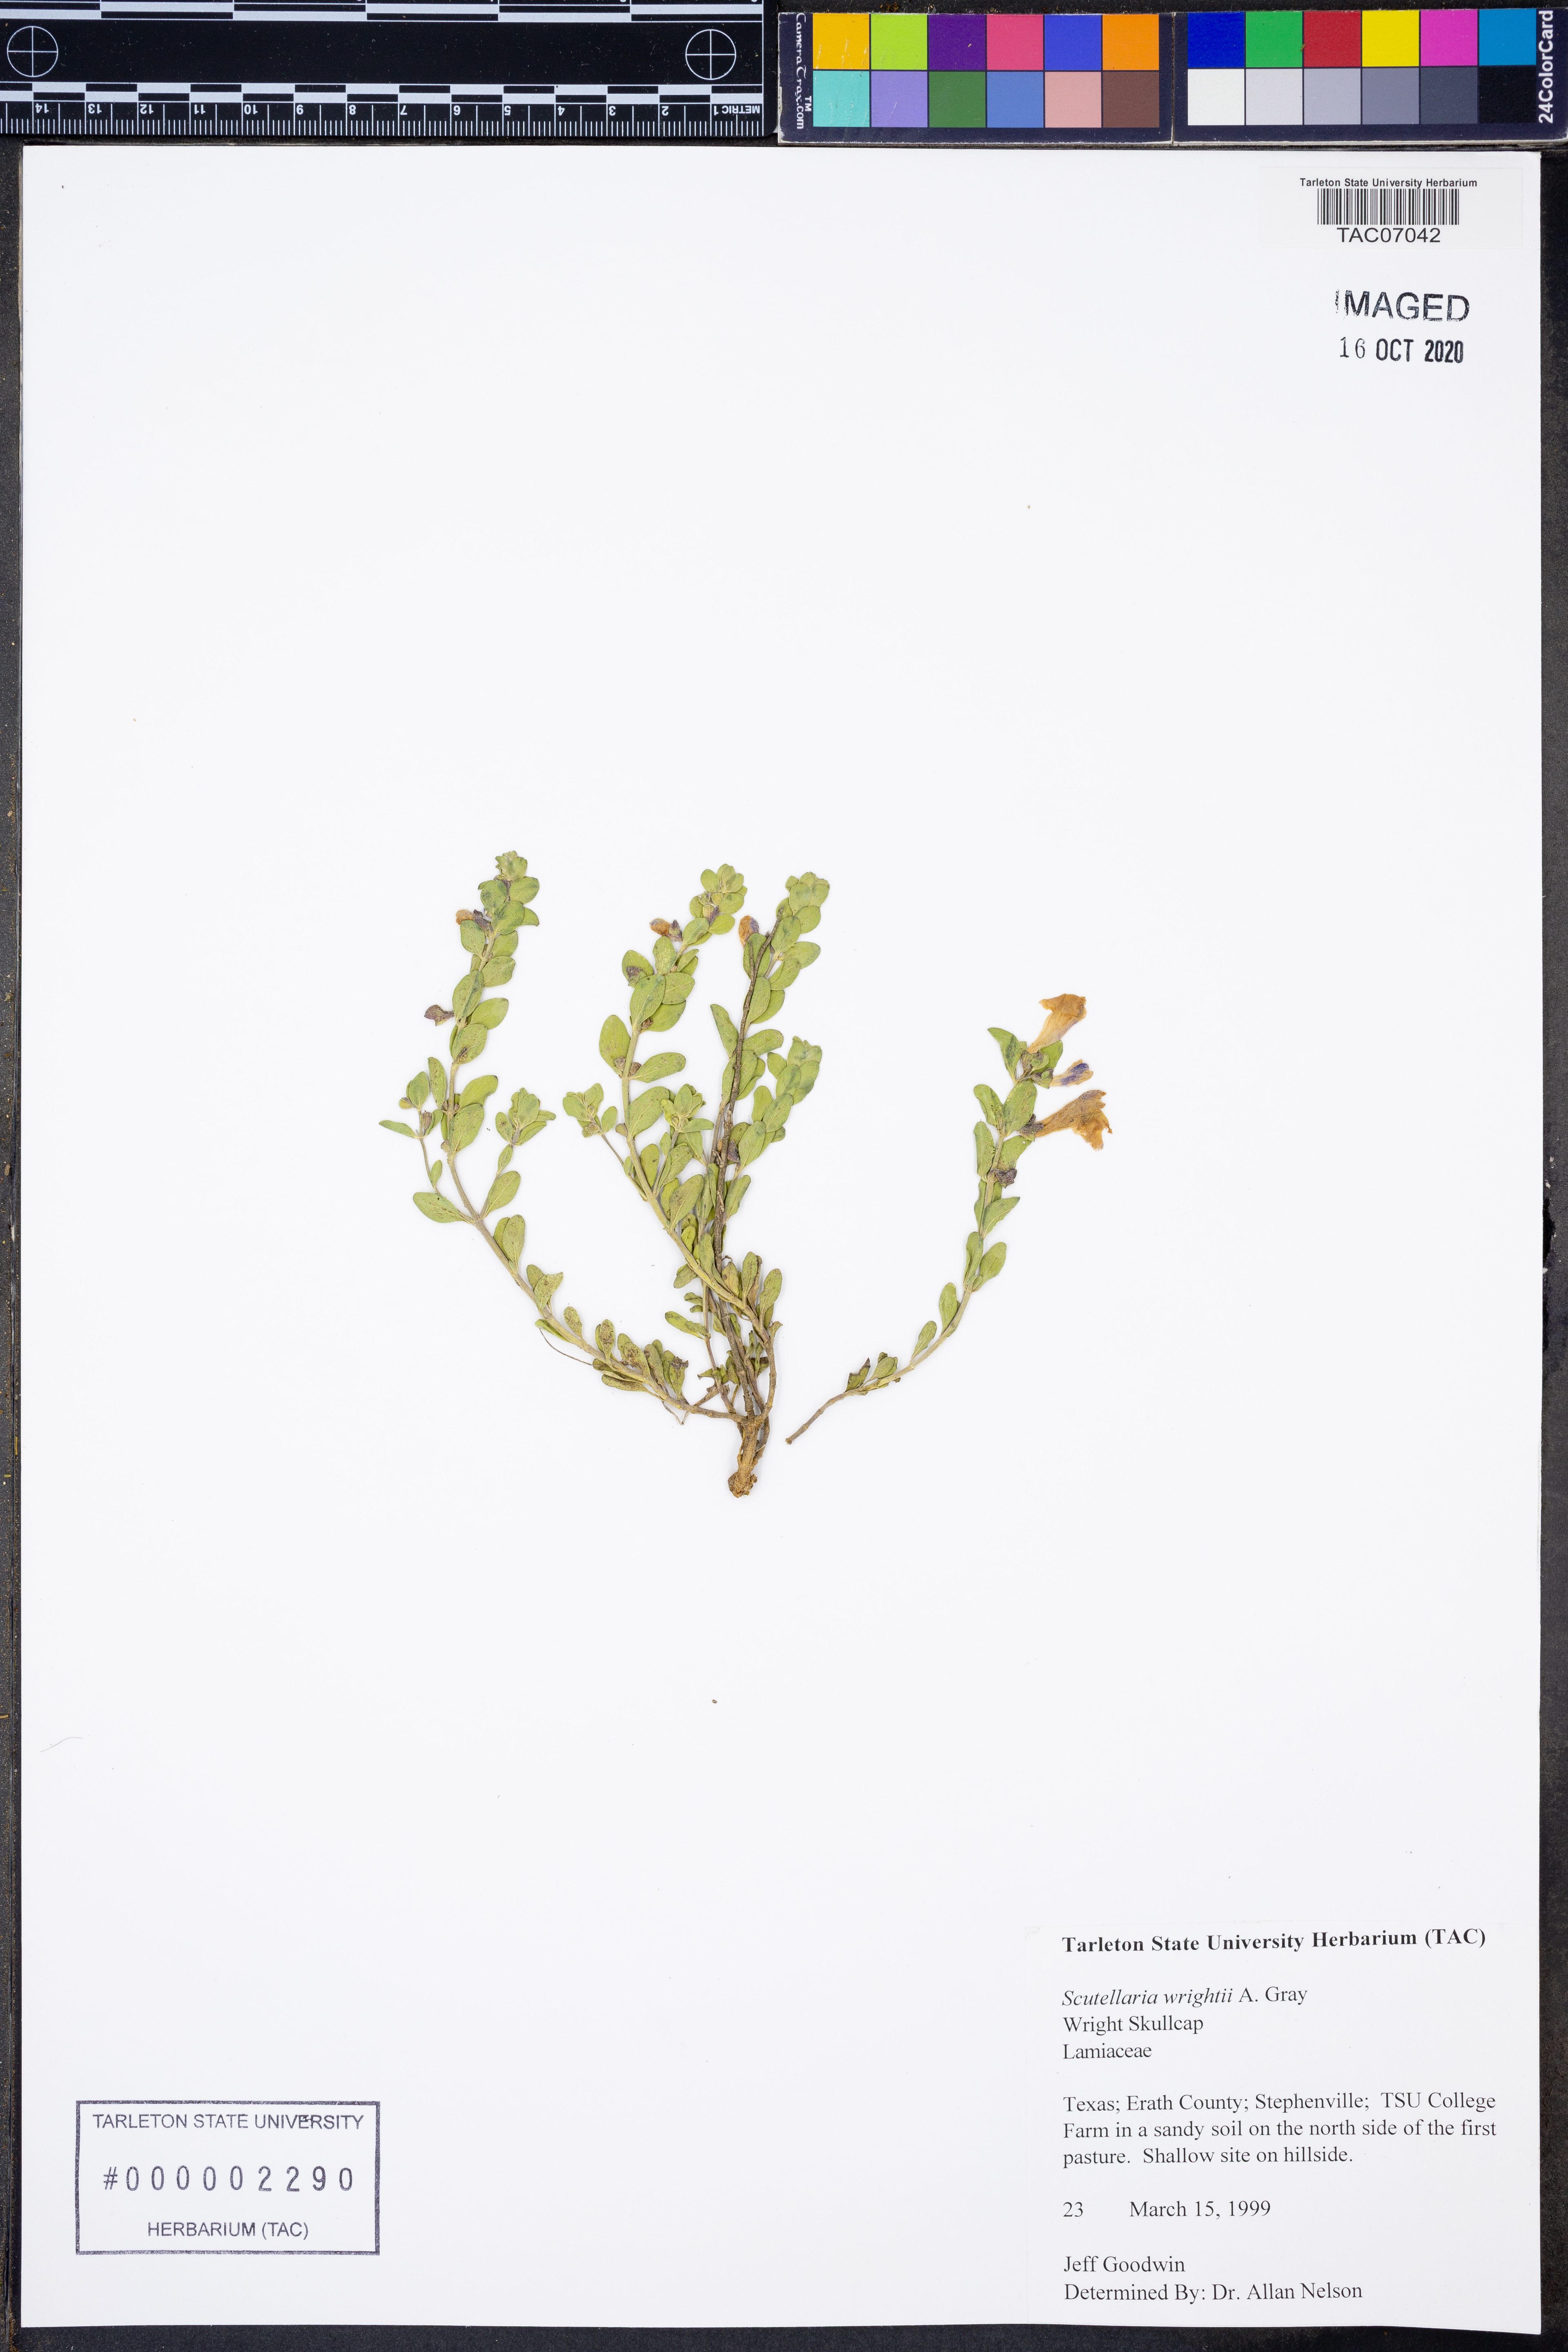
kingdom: Plantae
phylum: Tracheophyta
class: Magnoliopsida
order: Lamiales
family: Lamiaceae
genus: Scutellaria
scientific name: Scutellaria wrightii
